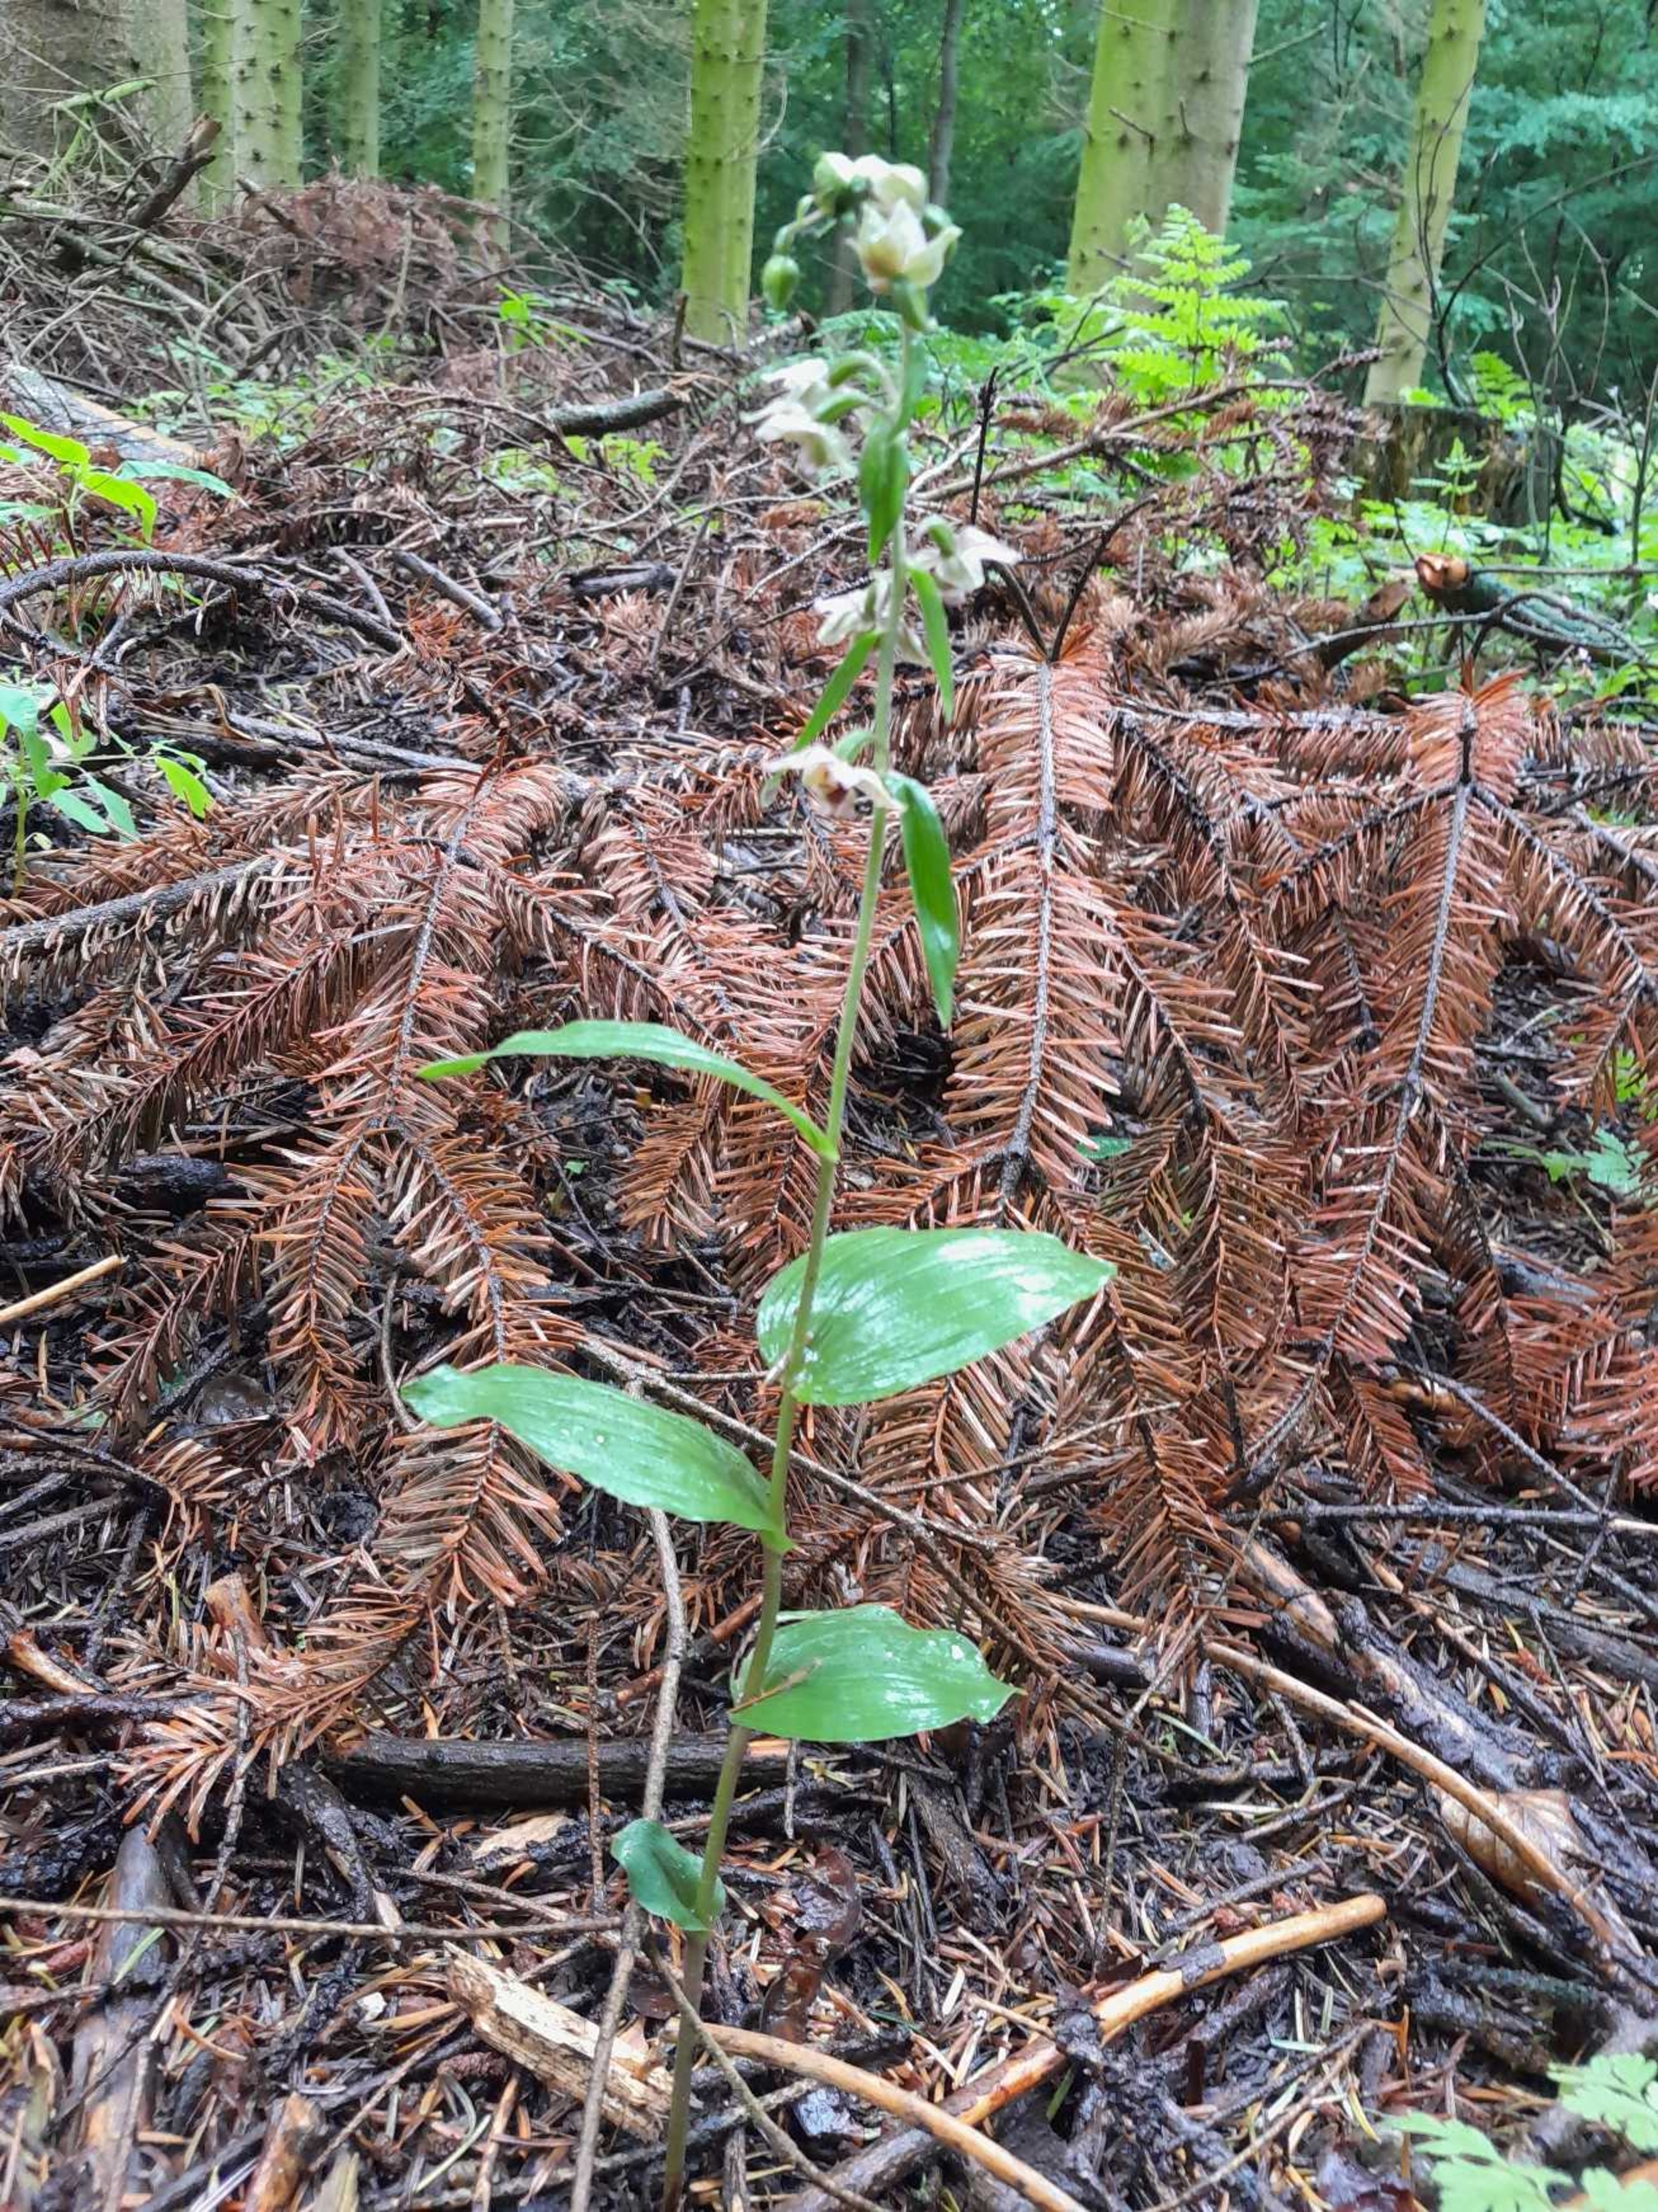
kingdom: Plantae
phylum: Tracheophyta
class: Liliopsida
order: Asparagales
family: Orchidaceae
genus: Epipactis
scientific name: Epipactis helleborine
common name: Skov-hullæbe
